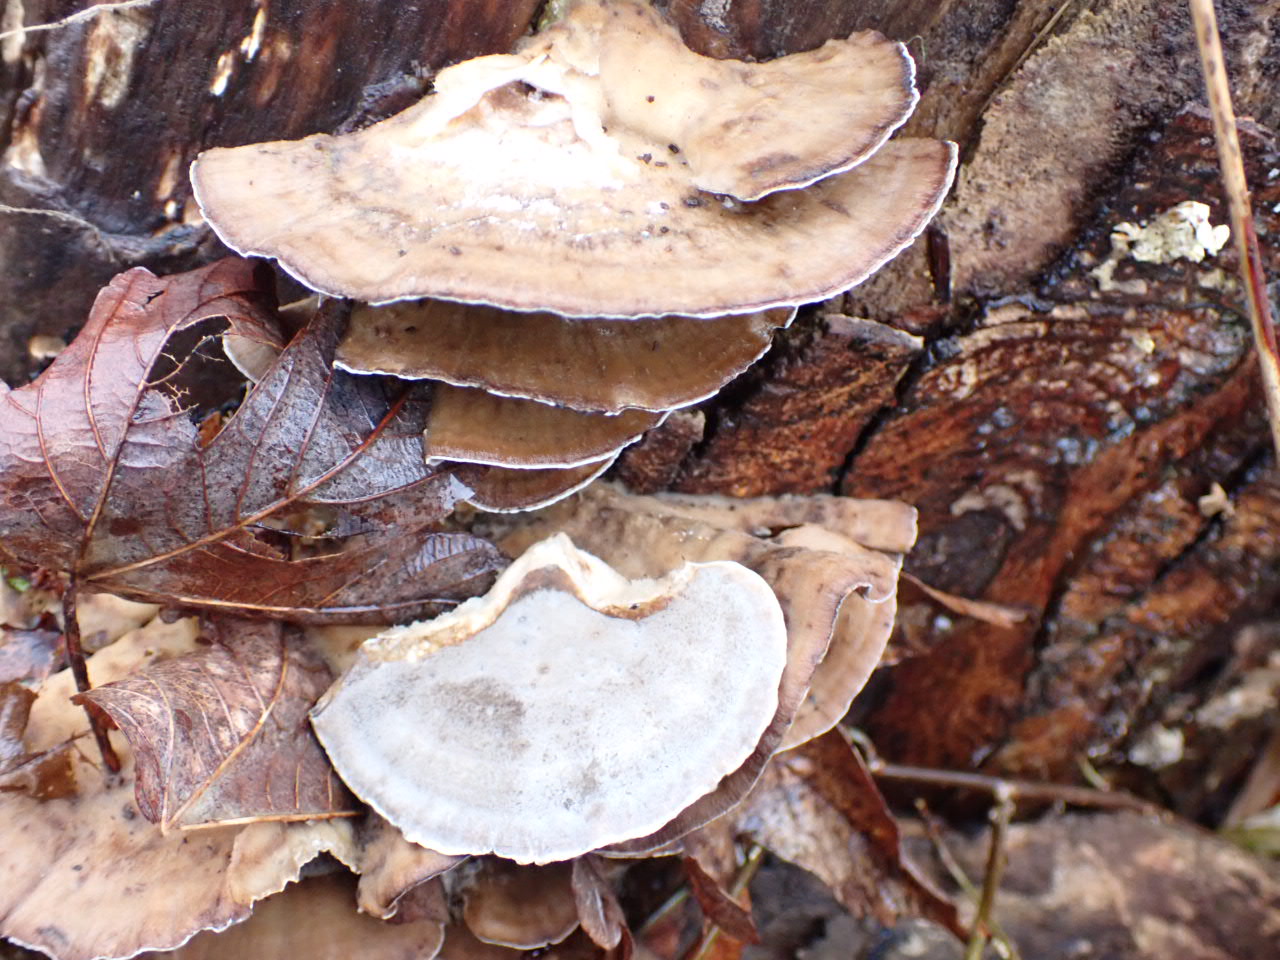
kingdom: Fungi
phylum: Basidiomycota
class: Agaricomycetes
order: Polyporales
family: Phanerochaetaceae
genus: Bjerkandera
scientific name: Bjerkandera adusta
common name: sveden sodporesvamp
